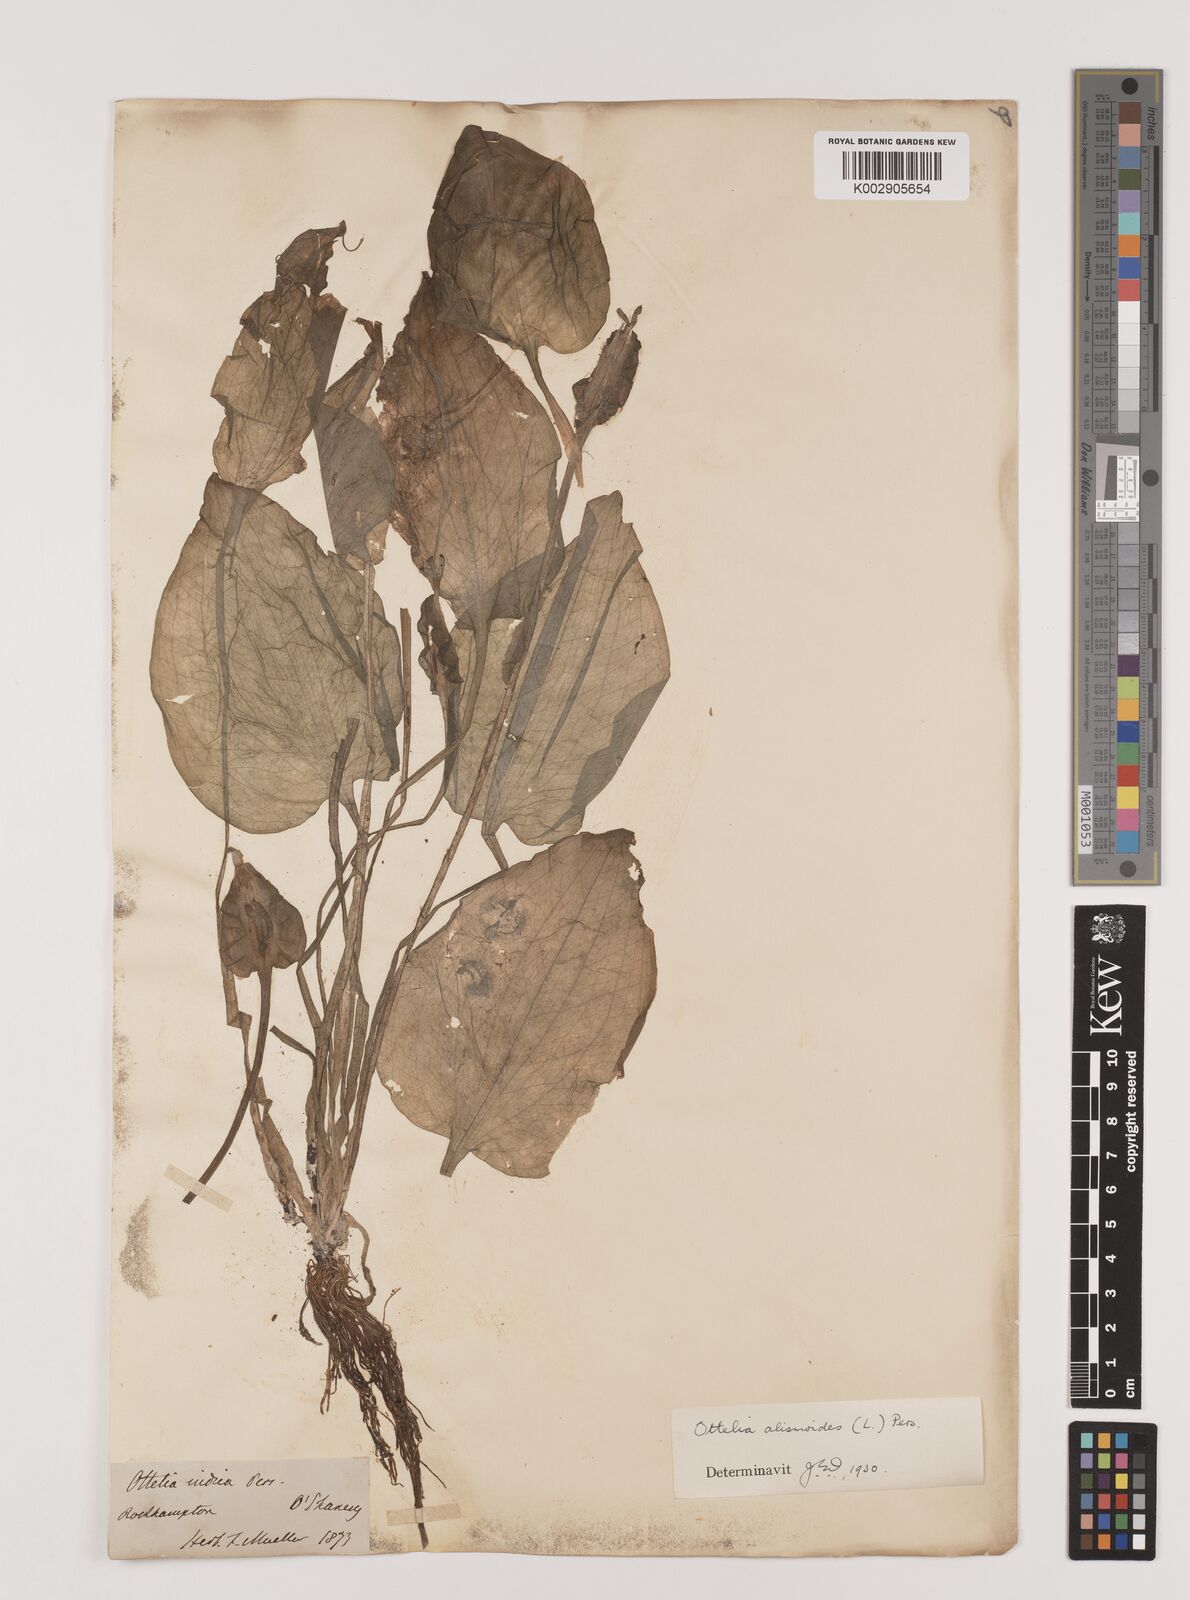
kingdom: Plantae
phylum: Tracheophyta
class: Liliopsida
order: Alismatales
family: Hydrocharitaceae
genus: Ottelia
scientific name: Ottelia alismoides
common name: Duck-lettuce
